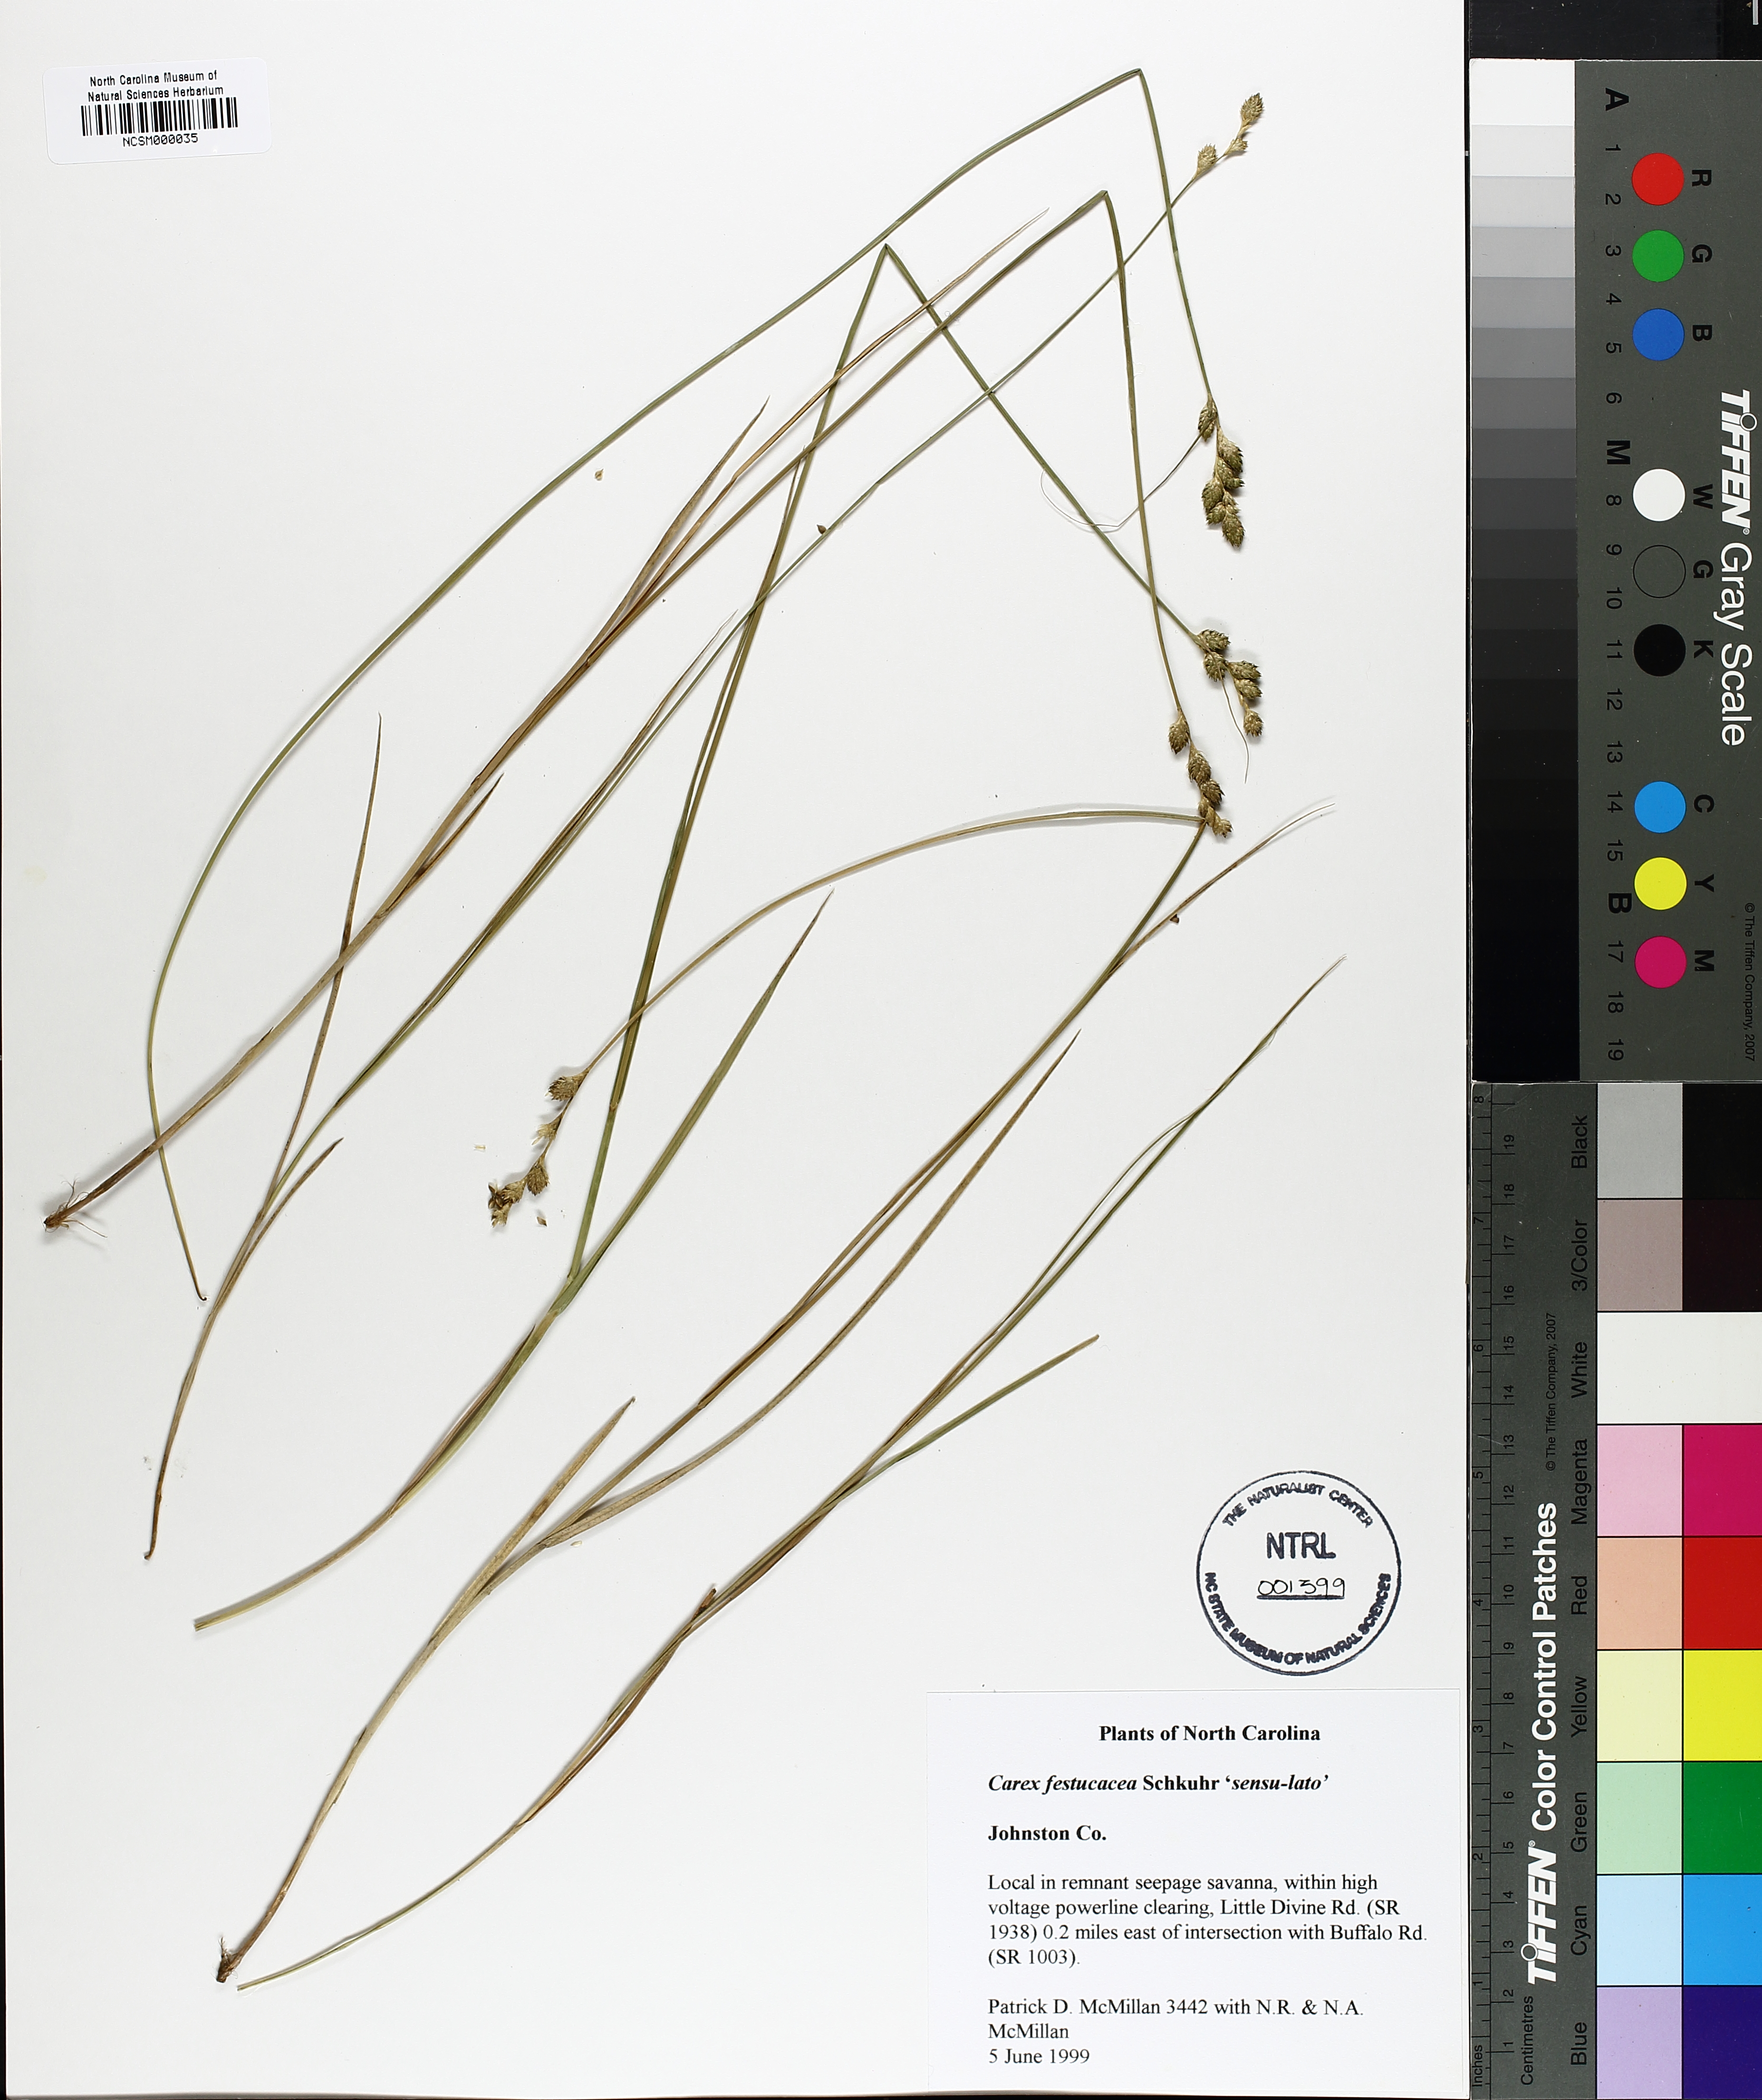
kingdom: Plantae
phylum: Tracheophyta
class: Liliopsida
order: Poales
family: Cyperaceae
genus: Carex
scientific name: Carex festucacea
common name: Fescue oval sedge
